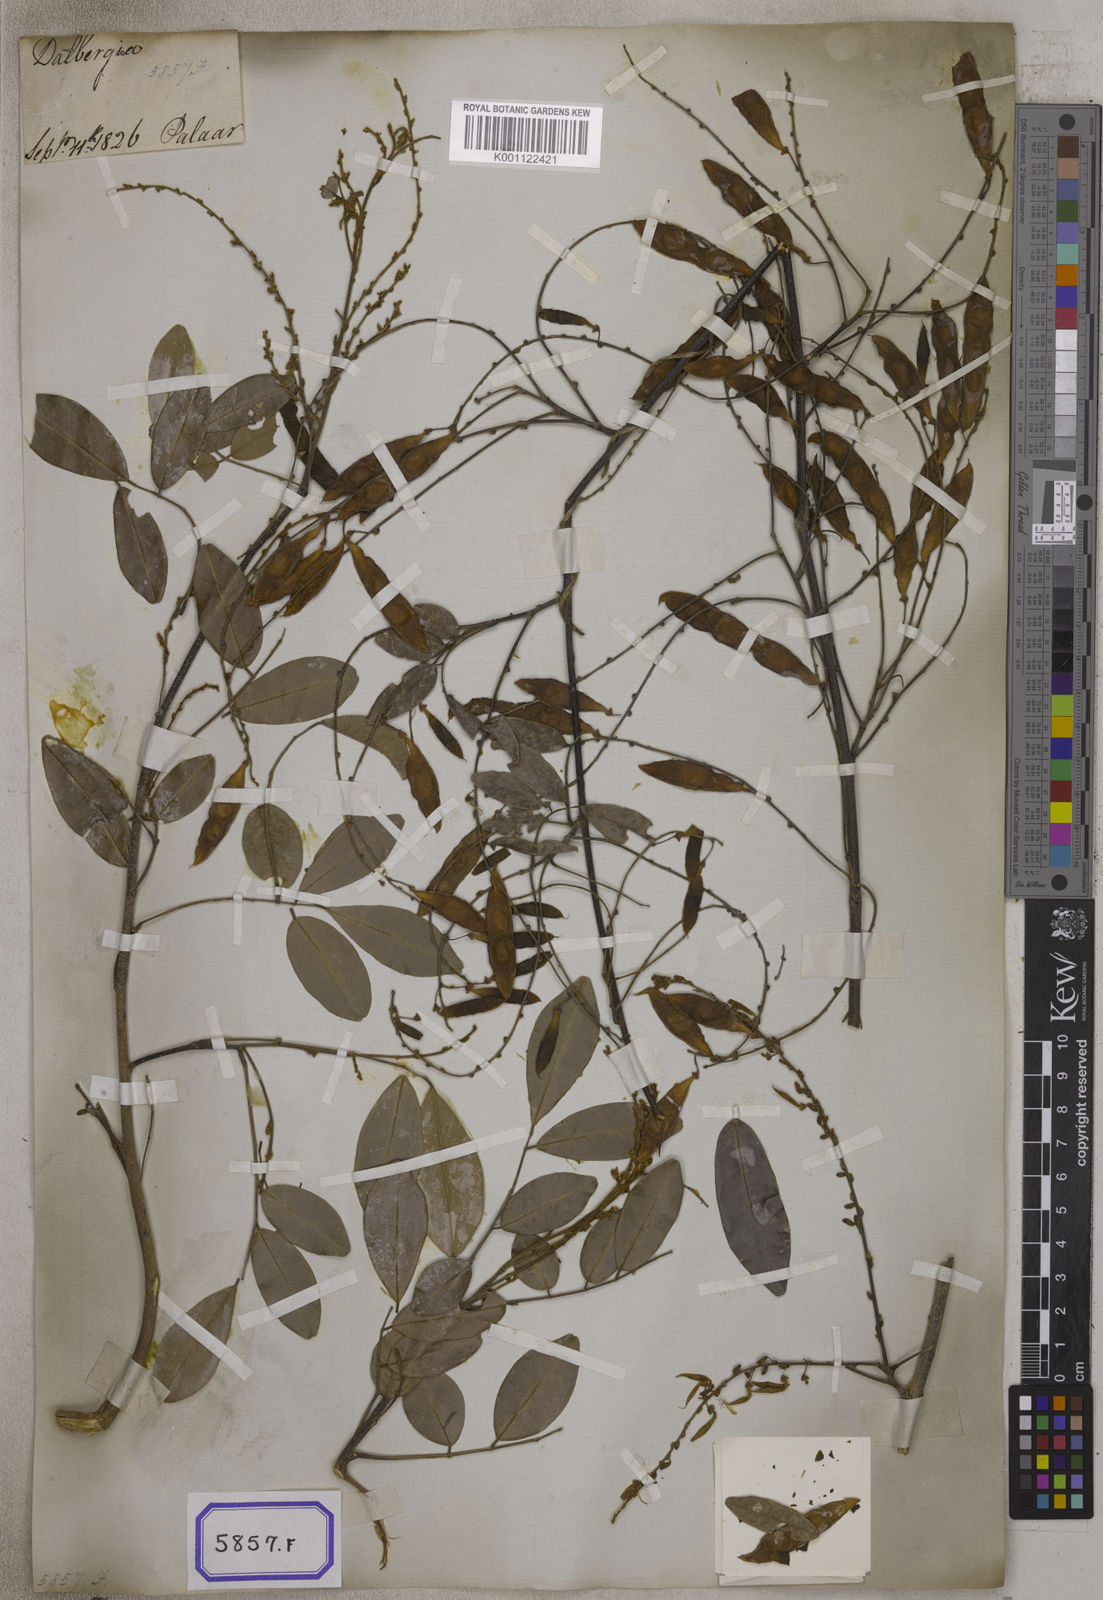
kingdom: Plantae
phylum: Tracheophyta
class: Magnoliopsida
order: Fabales
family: Fabaceae
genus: Brachypterum
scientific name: Brachypterum scandens
